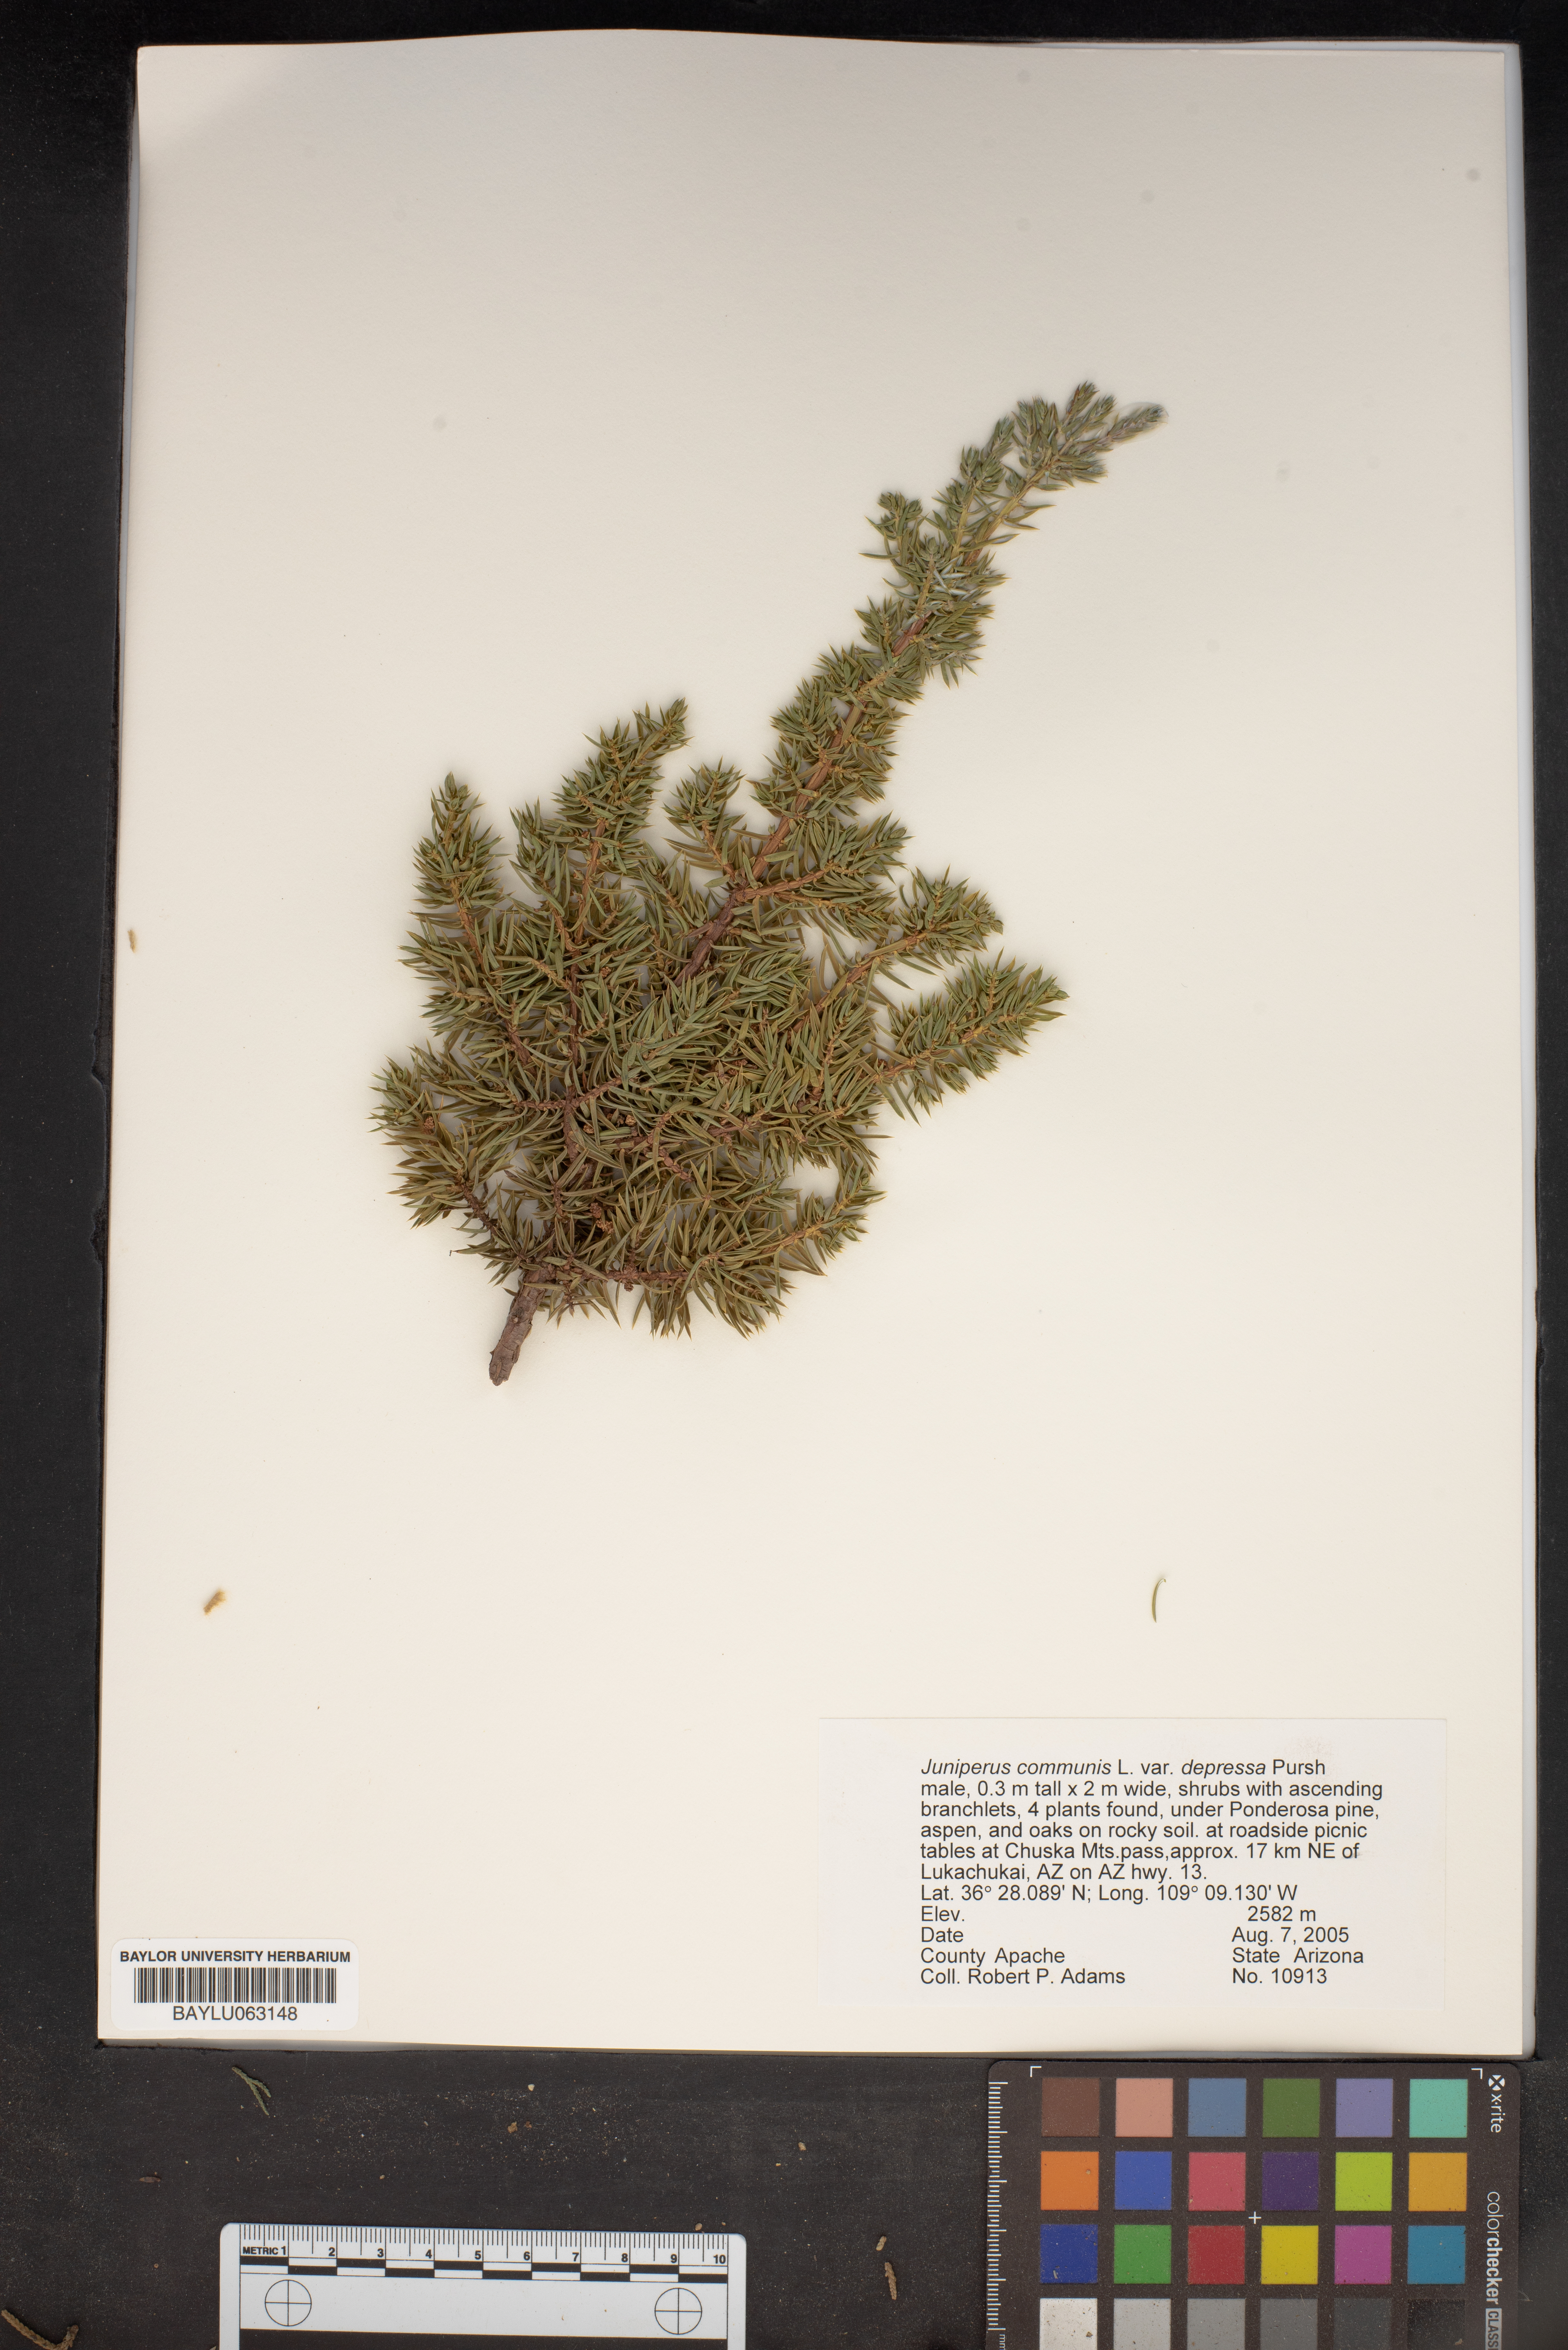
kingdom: Plantae
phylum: Tracheophyta
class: Pinopsida
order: Pinales
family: Cupressaceae
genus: Juniperus
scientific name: Juniperus communis
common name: Common juniper
